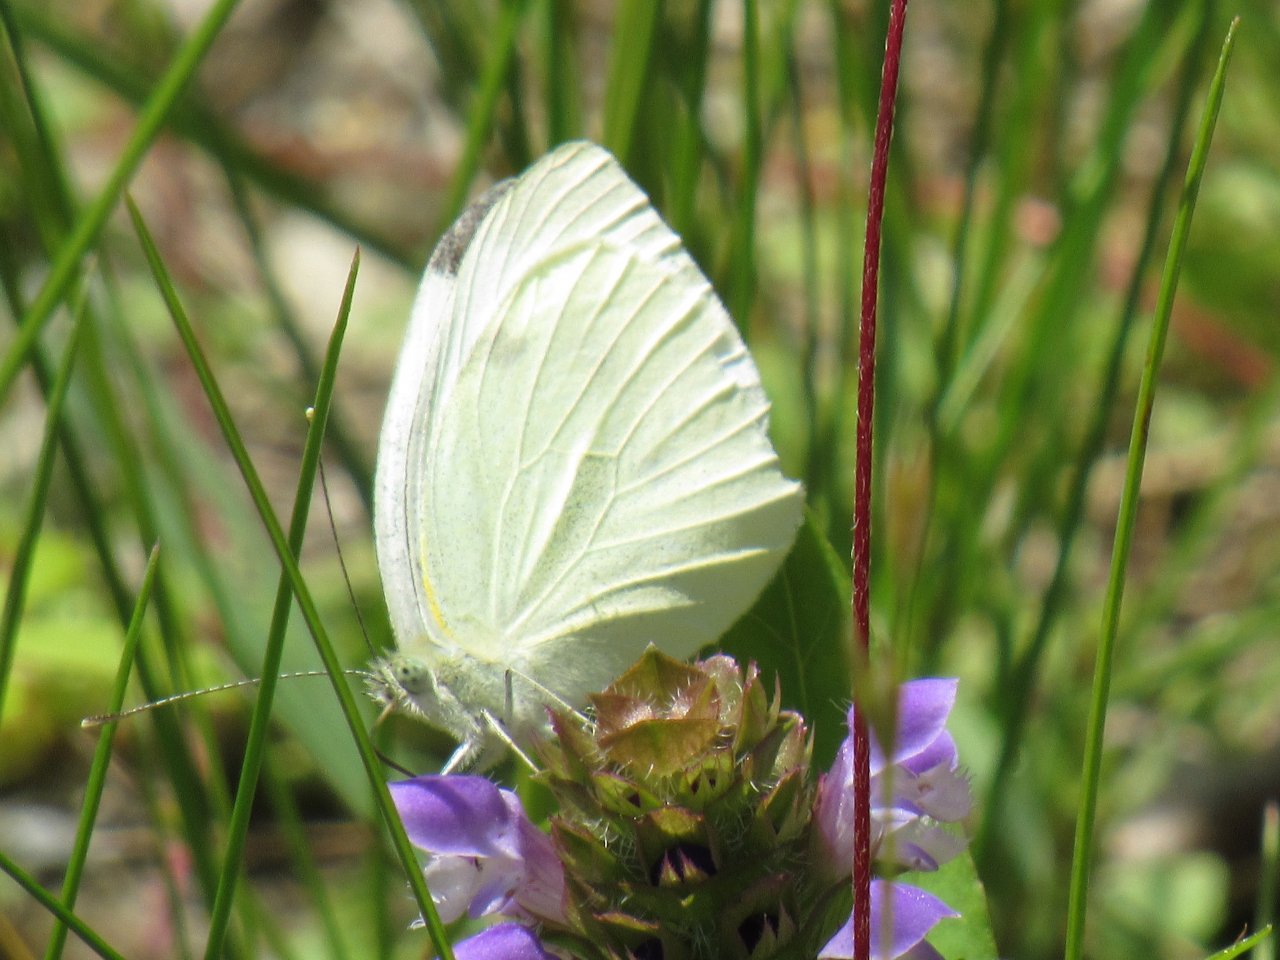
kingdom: Animalia
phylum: Arthropoda
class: Insecta
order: Lepidoptera
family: Pieridae
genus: Pieris
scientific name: Pieris rapae
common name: Cabbage White
